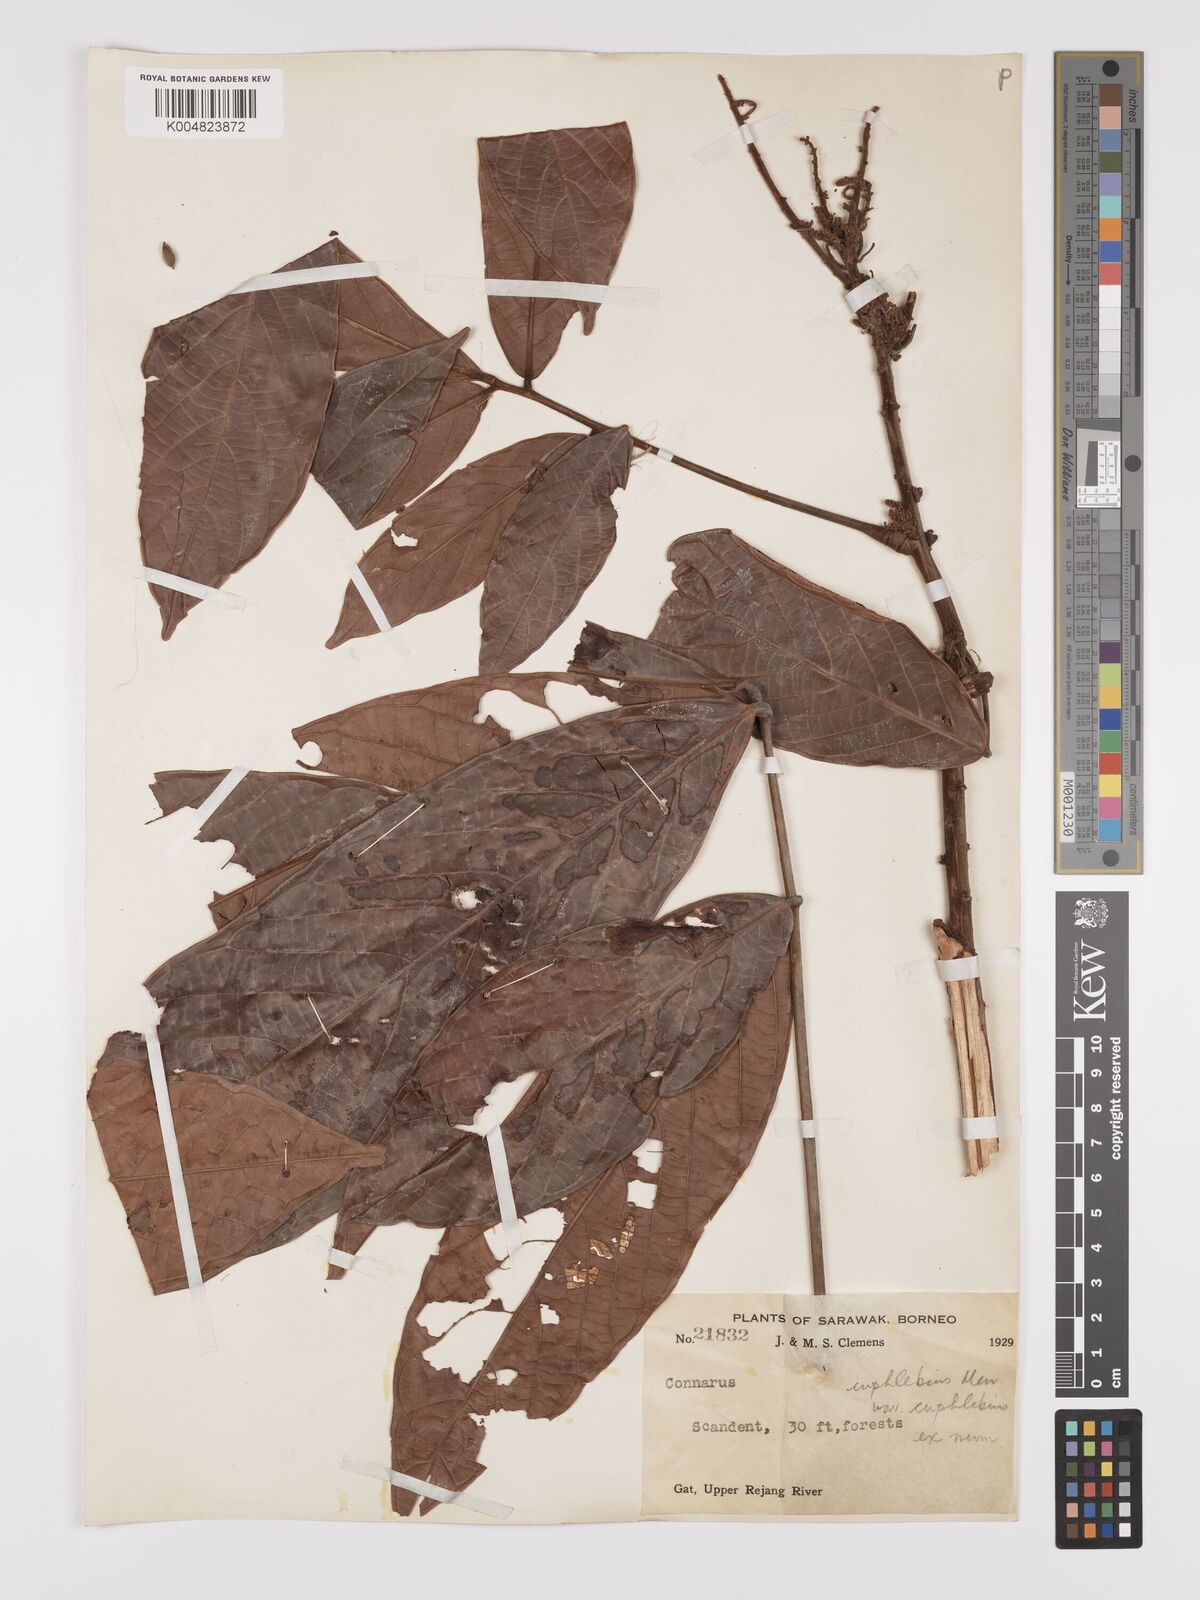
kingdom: Plantae
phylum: Tracheophyta
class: Magnoliopsida
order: Oxalidales
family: Connaraceae
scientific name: Connaraceae
